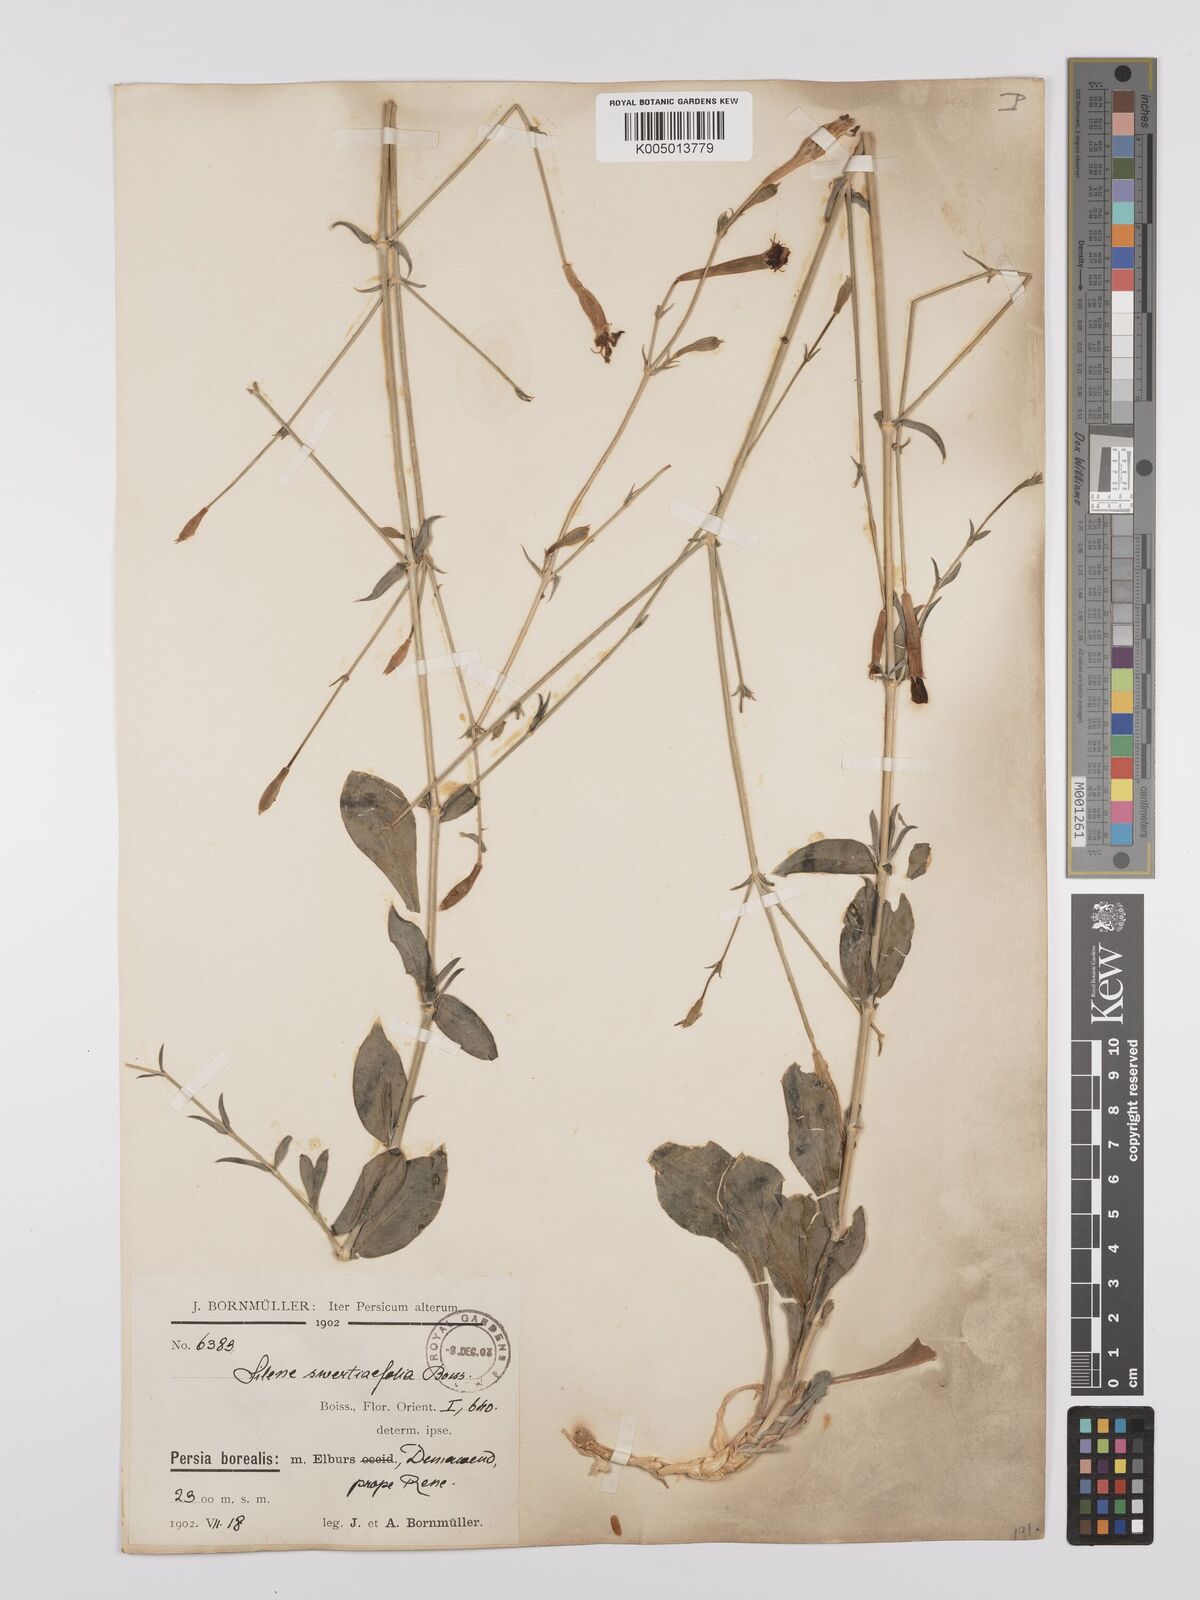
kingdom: Plantae
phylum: Tracheophyta
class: Magnoliopsida
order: Caryophyllales
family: Caryophyllaceae
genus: Silene
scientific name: Silene swertiifolia
